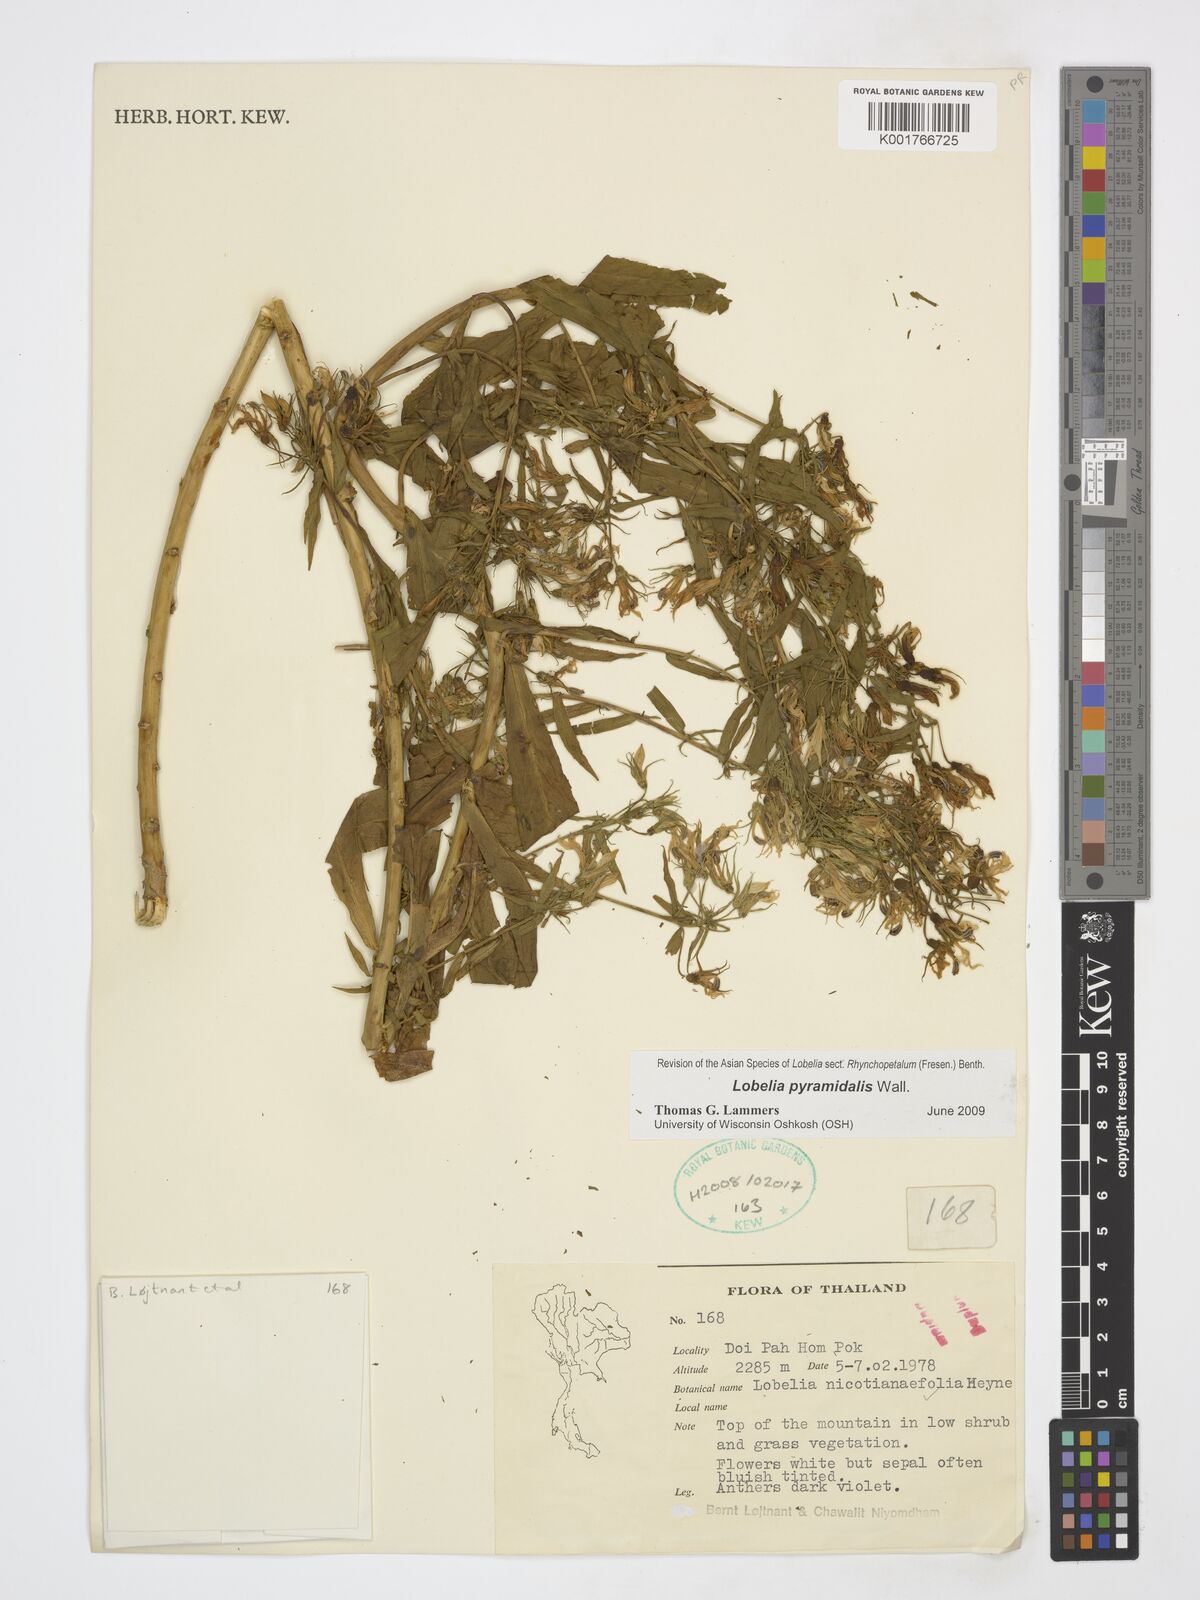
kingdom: Plantae
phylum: Tracheophyta
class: Magnoliopsida
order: Asterales
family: Campanulaceae
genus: Lobelia
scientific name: Lobelia pyramidalis
